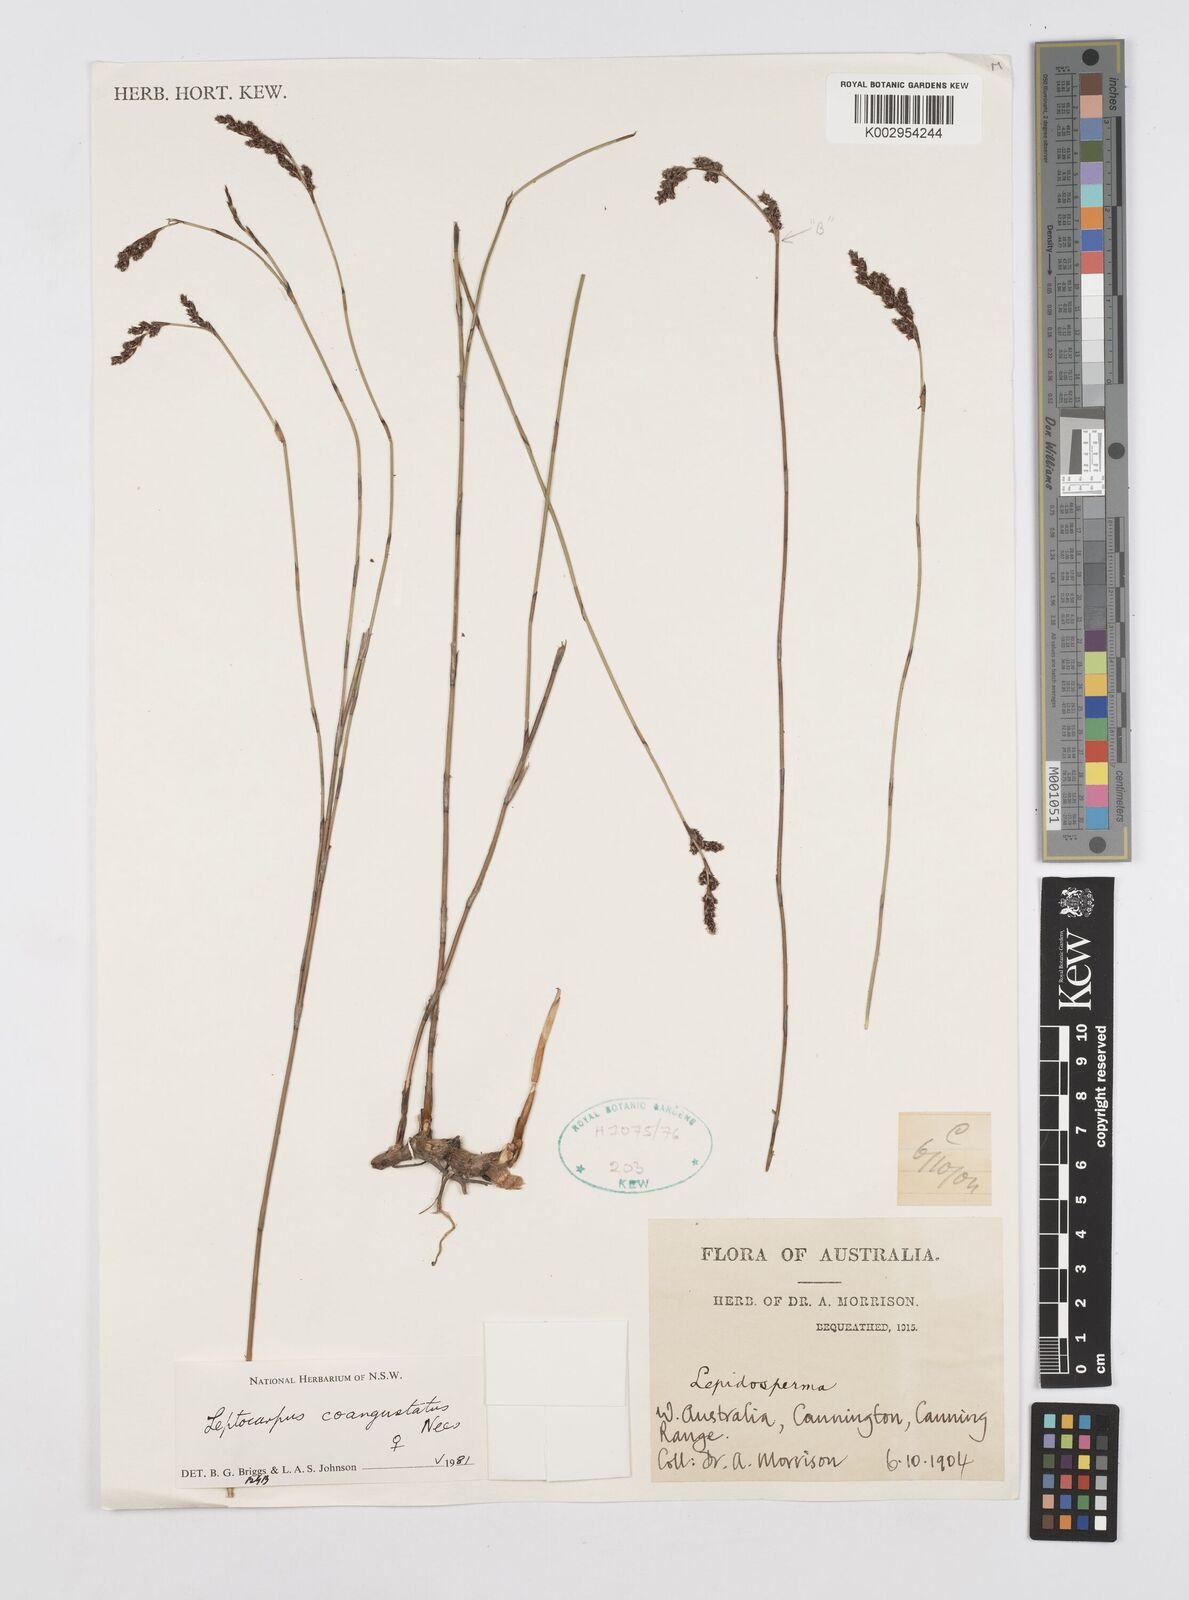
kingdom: Plantae
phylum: Tracheophyta
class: Liliopsida
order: Poales
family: Restionaceae
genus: Leptocarpus
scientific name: Leptocarpus coangustatus
